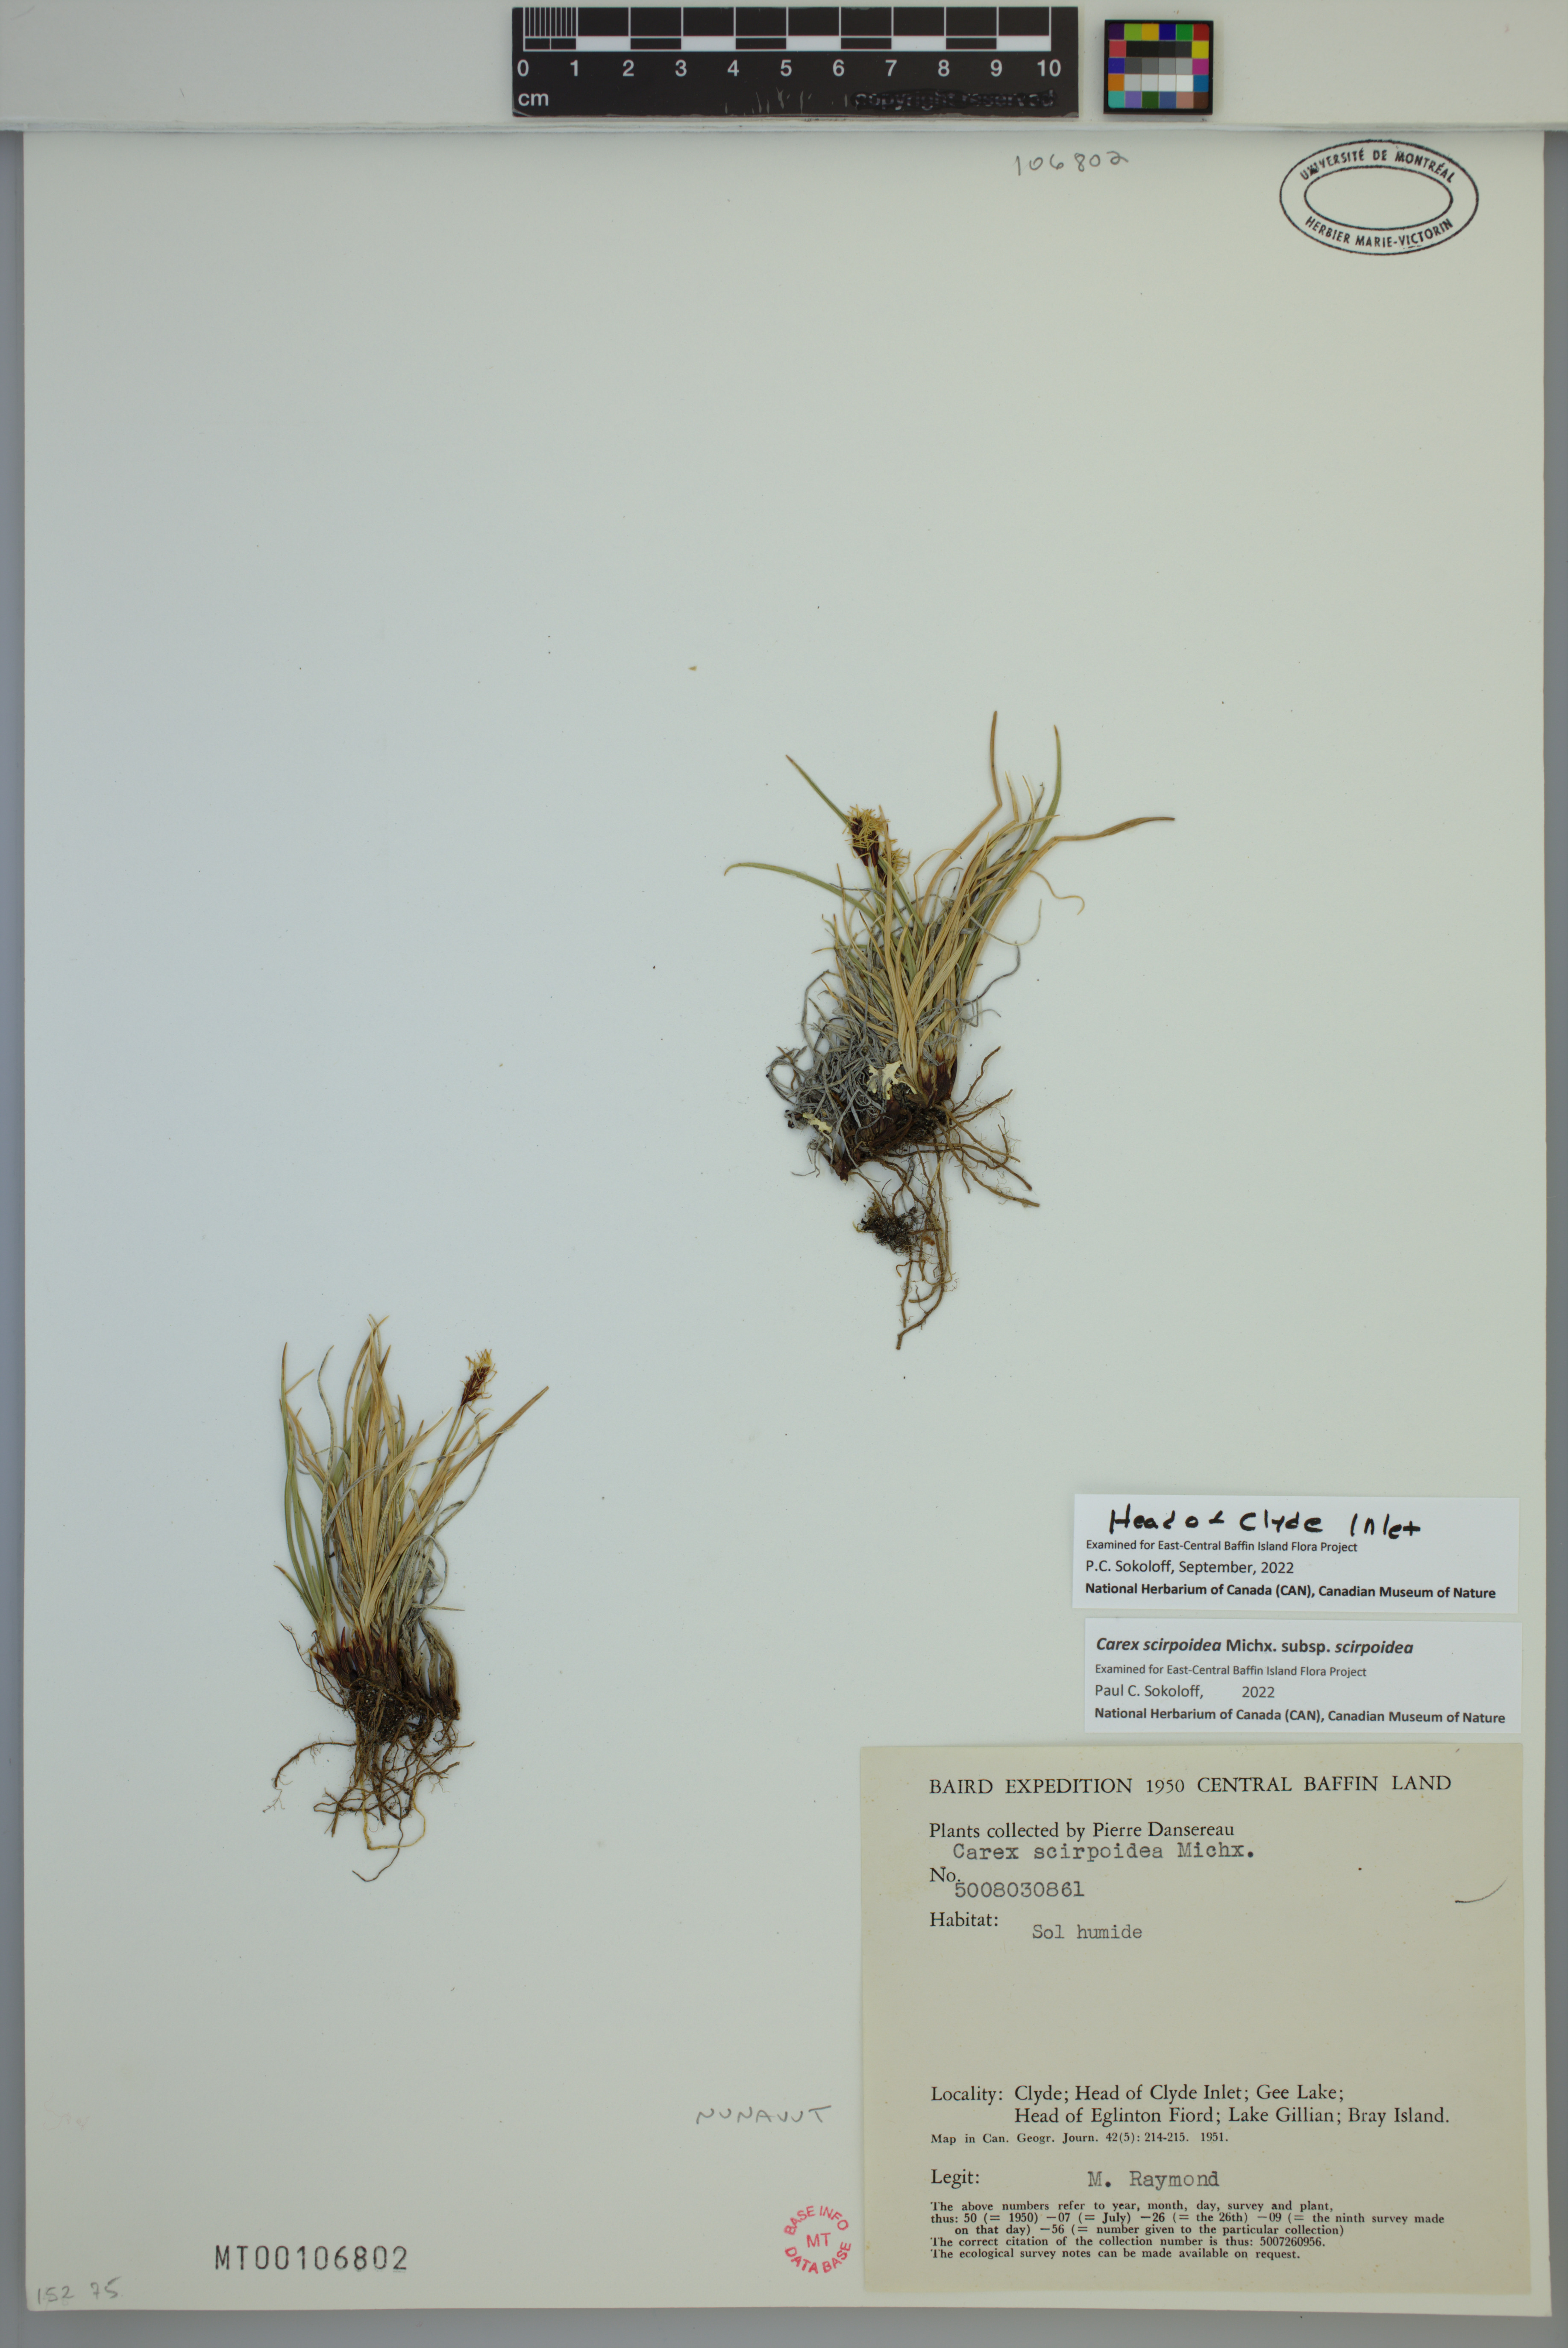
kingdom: Plantae
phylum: Tracheophyta
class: Liliopsida
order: Poales
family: Cyperaceae
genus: Carex
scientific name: Carex scirpoidea
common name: Canada single-spike sedge
